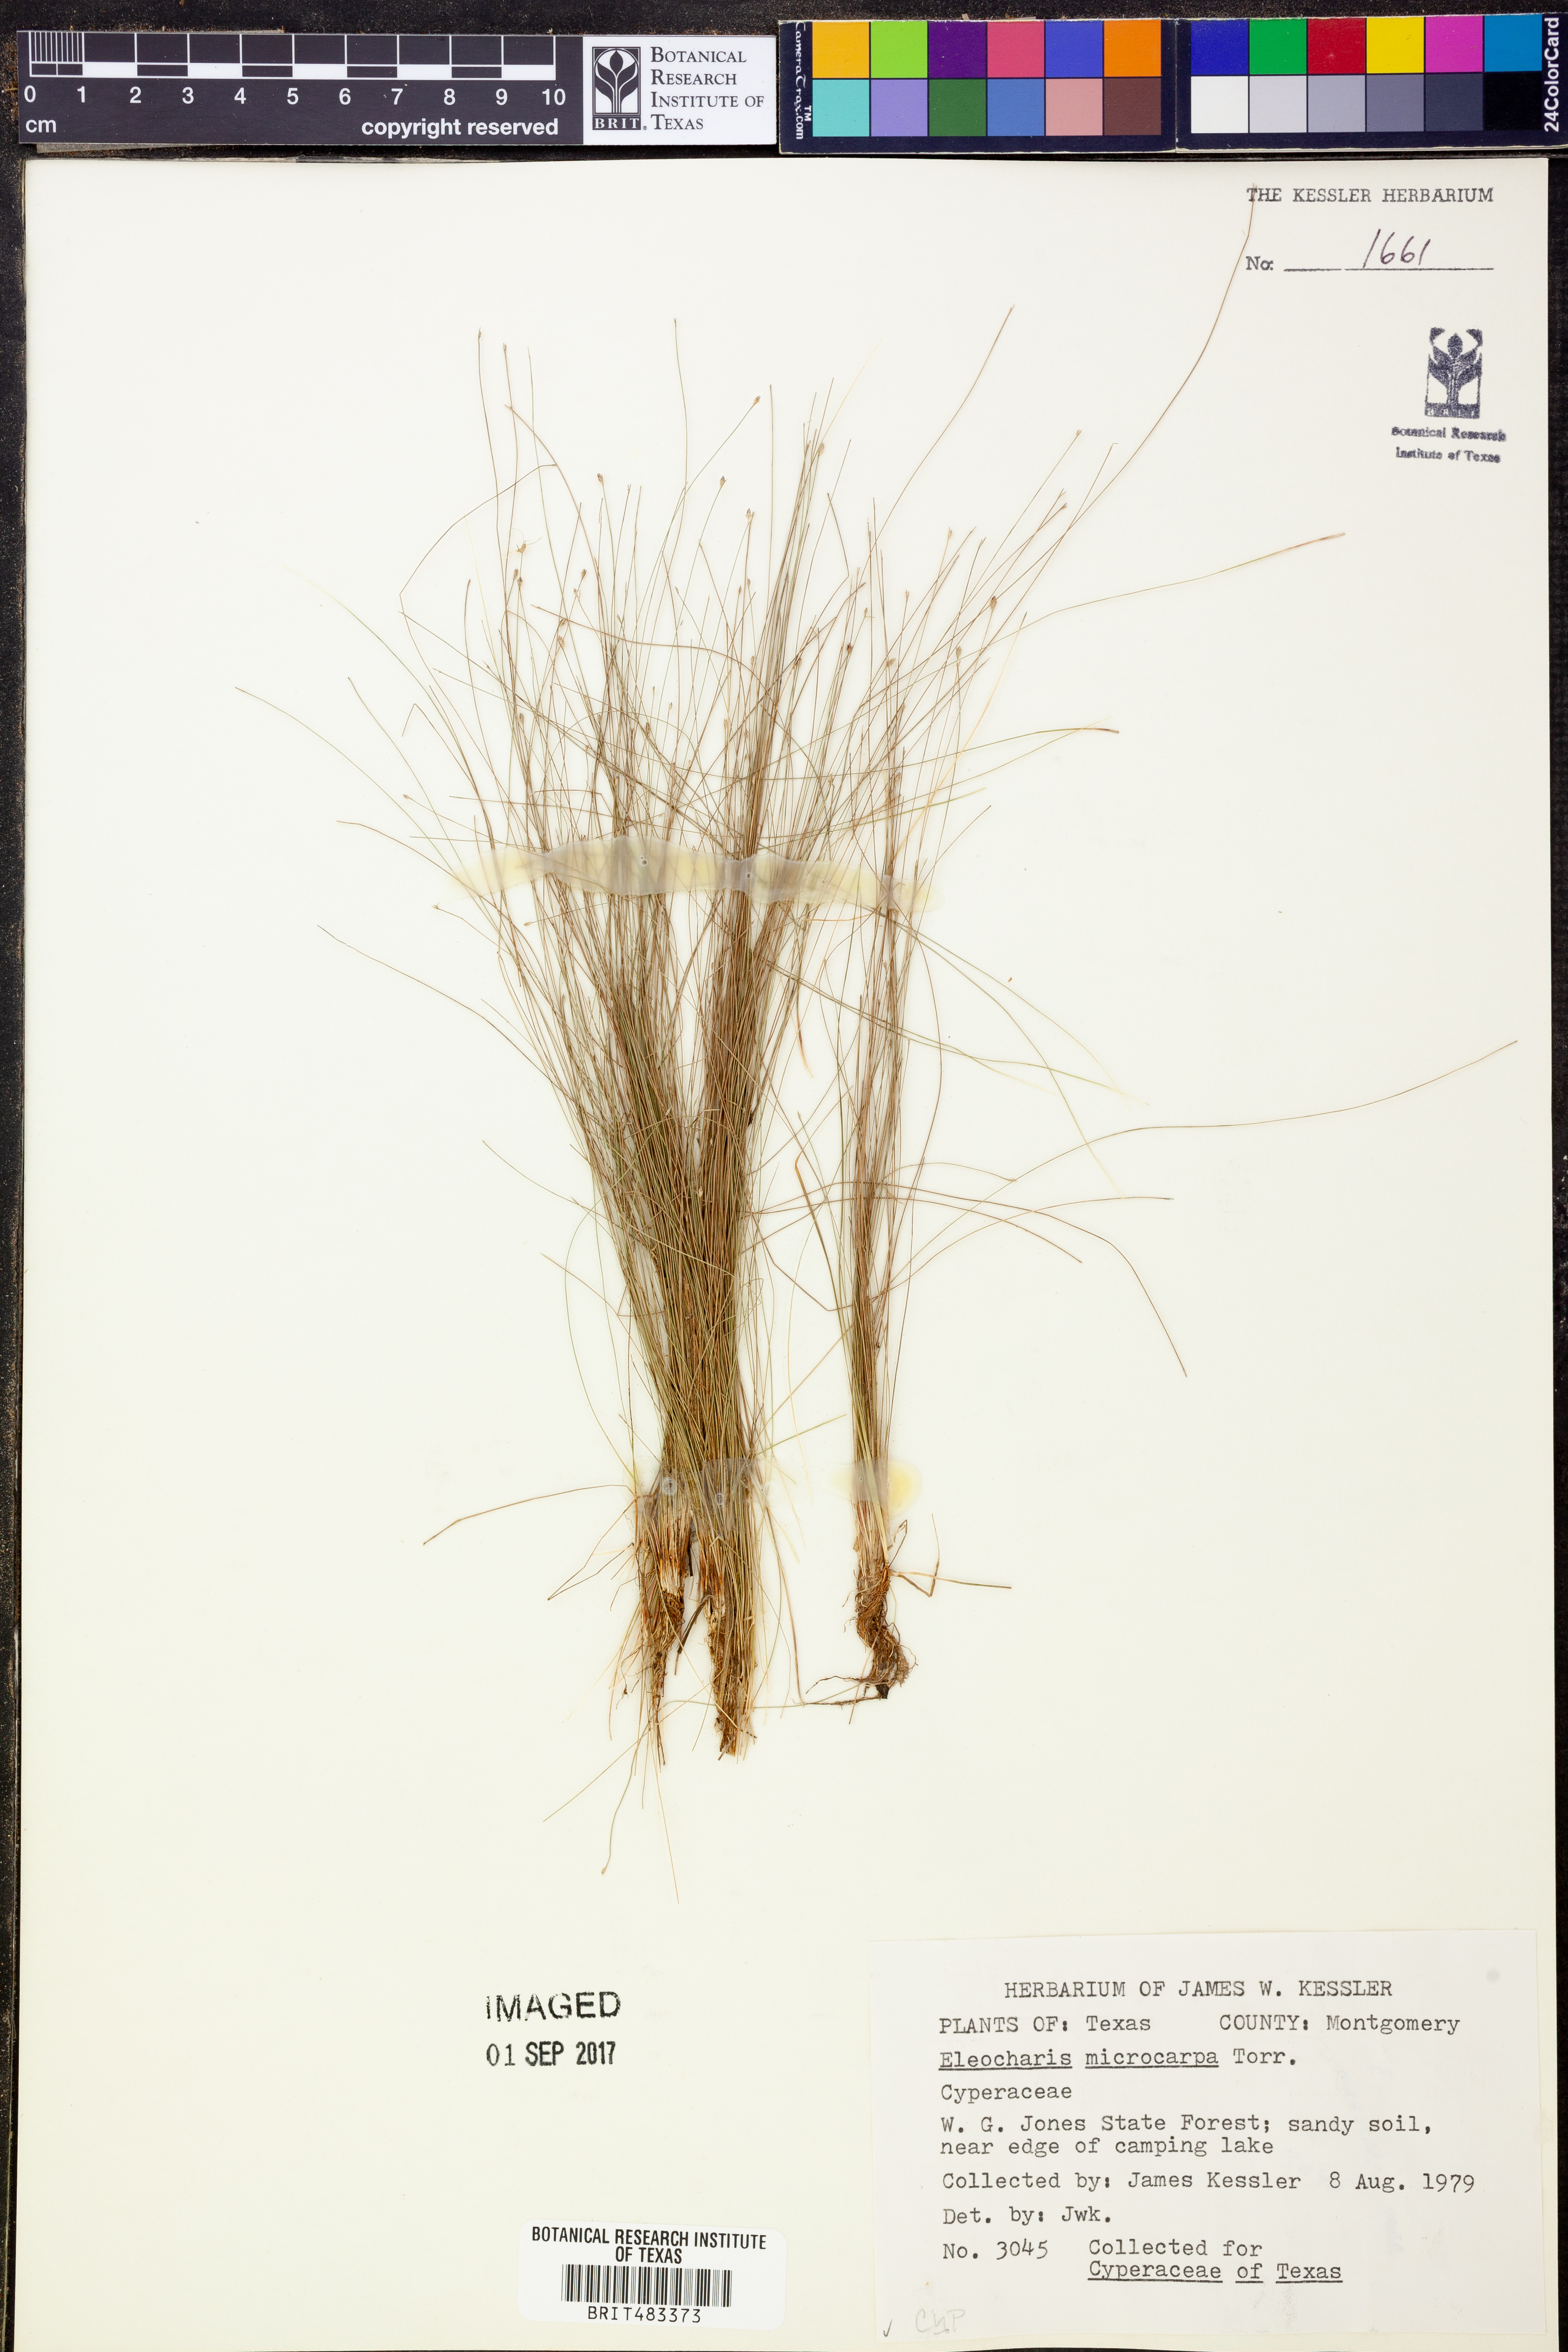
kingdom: Plantae
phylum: Tracheophyta
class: Liliopsida
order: Poales
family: Cyperaceae
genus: Eleocharis
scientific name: Eleocharis microcarpa
